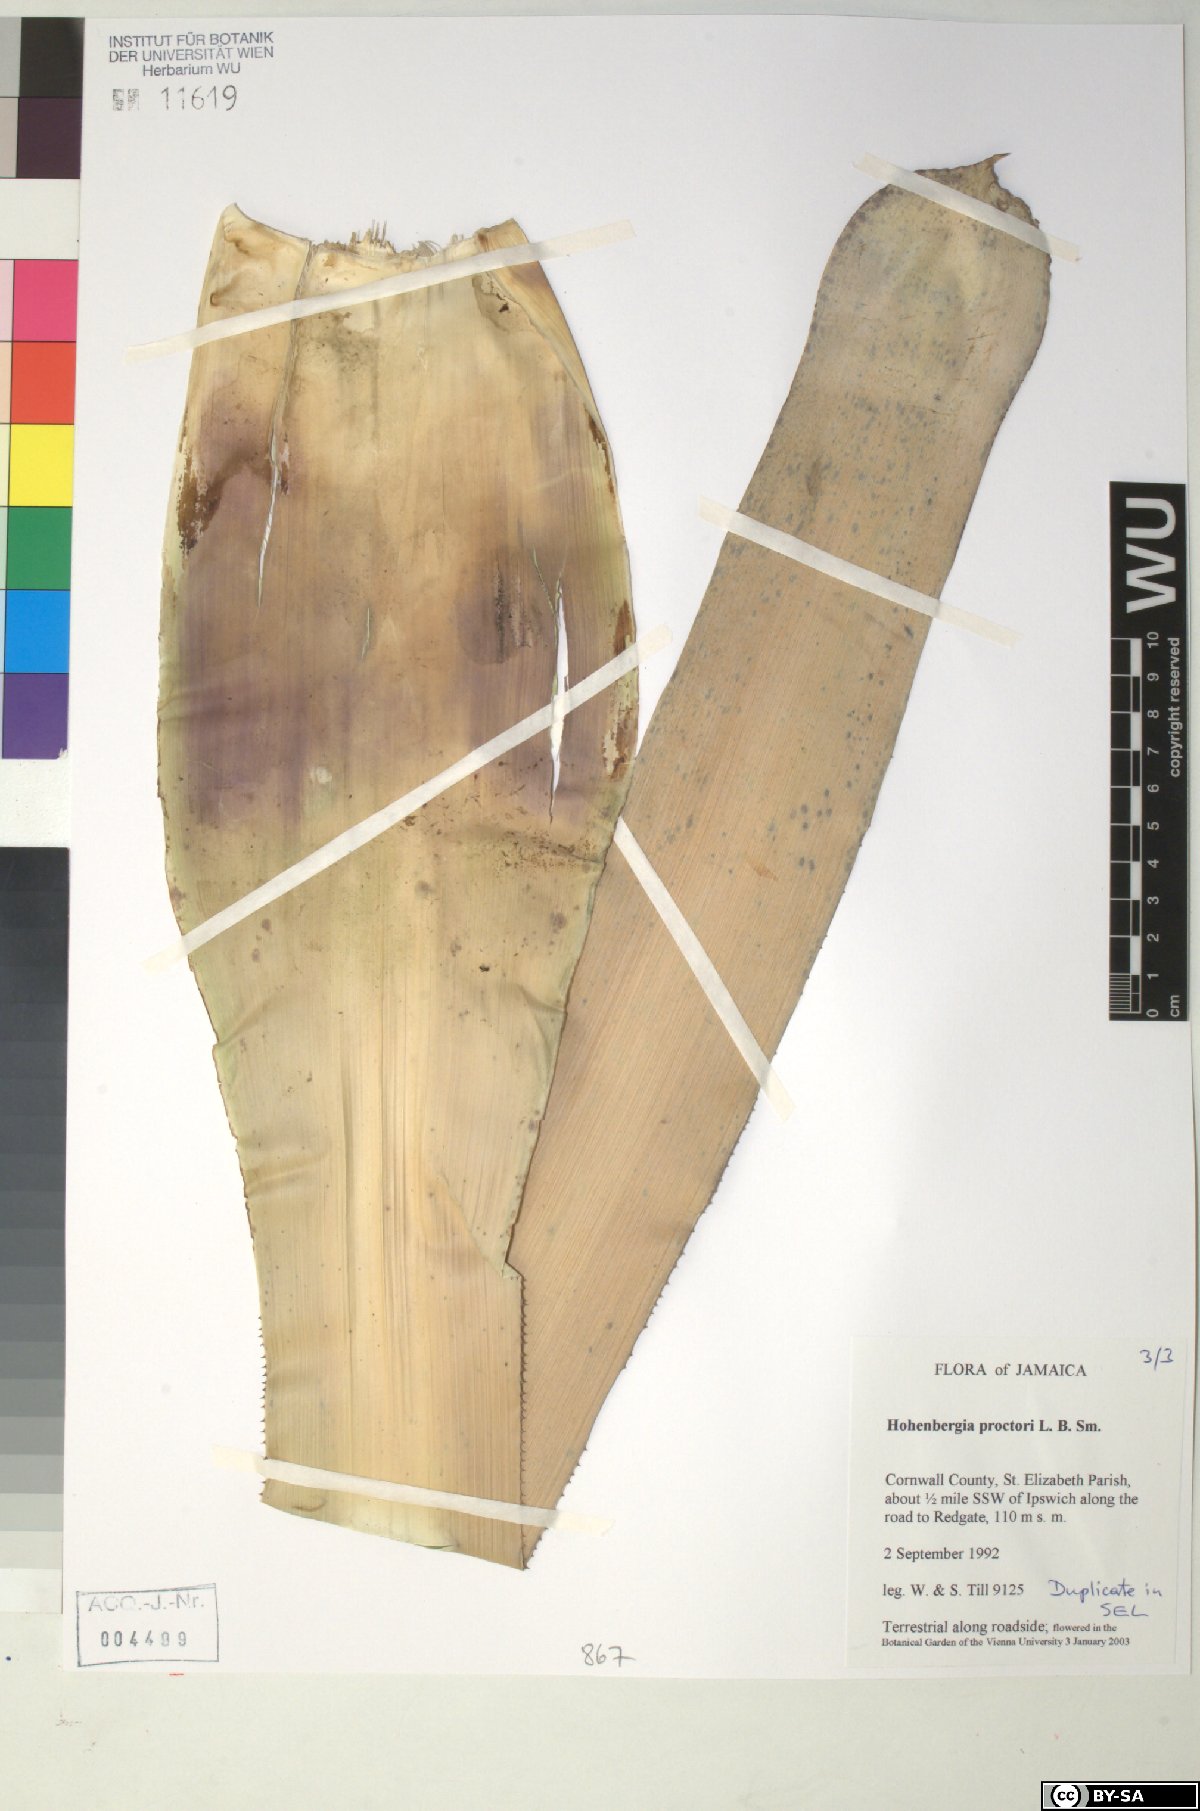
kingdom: Plantae
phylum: Tracheophyta
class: Liliopsida
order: Poales
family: Bromeliaceae
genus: Wittmackia
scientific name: Wittmackia urbaniana
